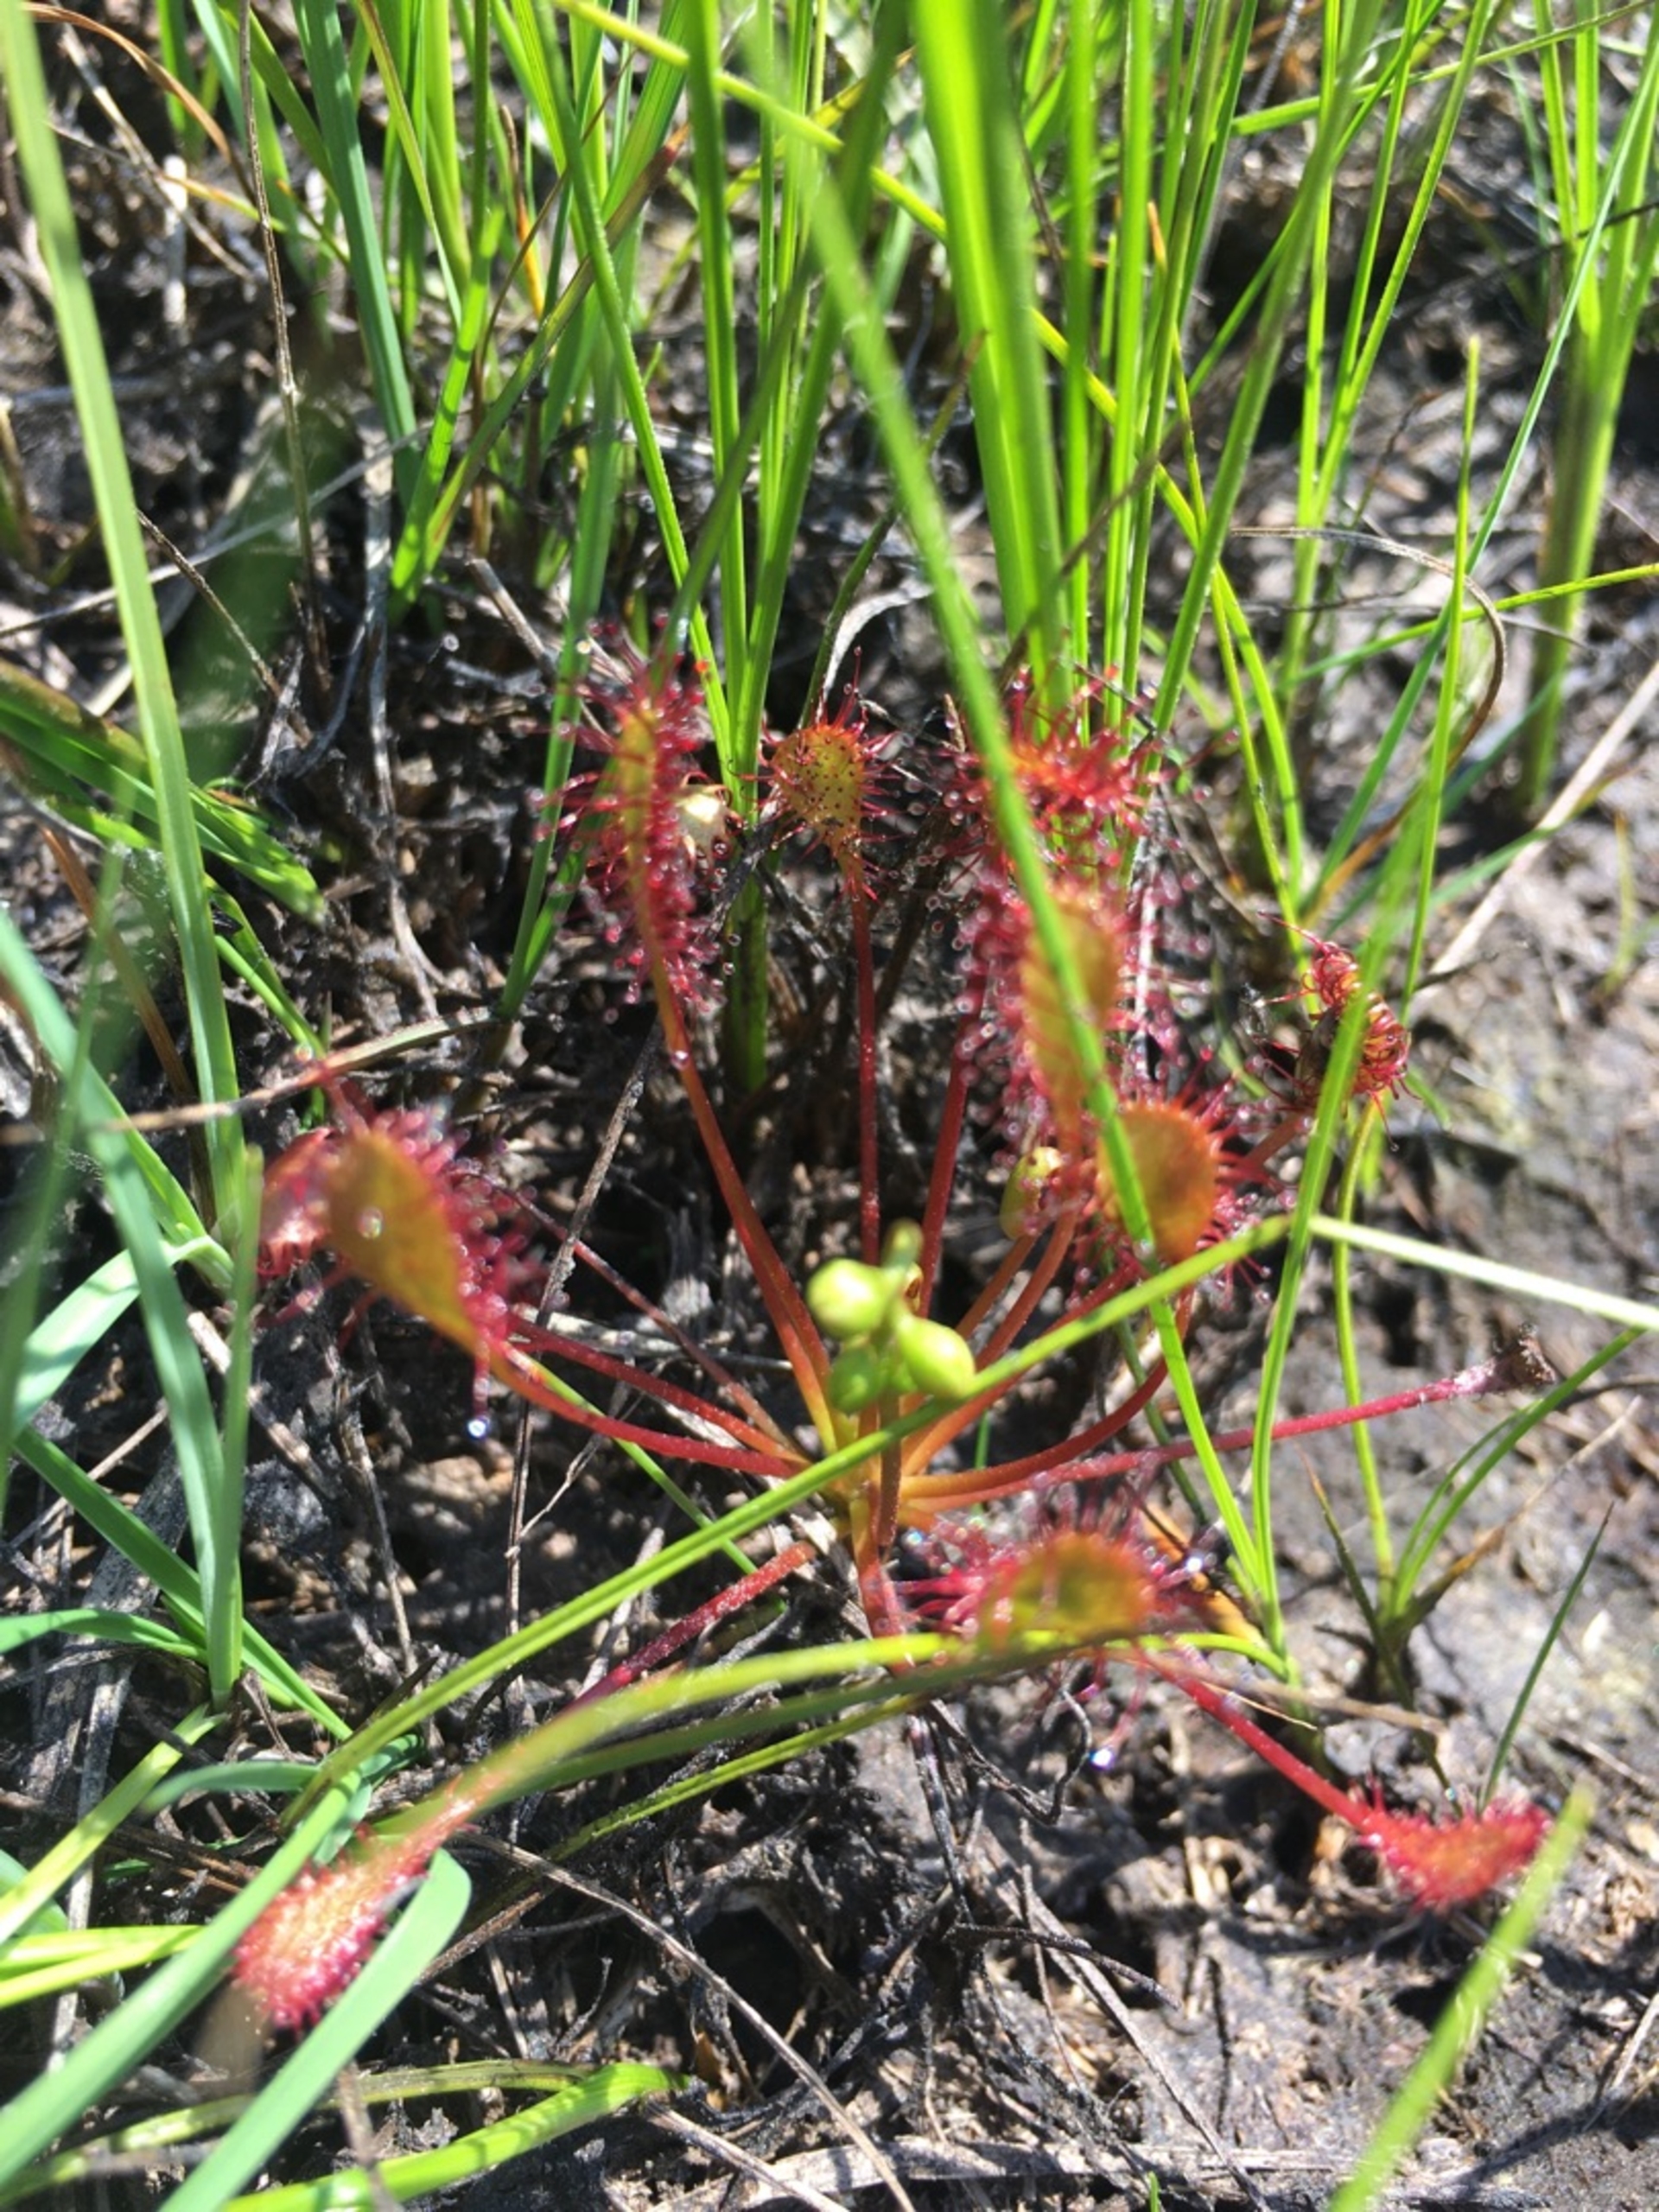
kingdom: Plantae
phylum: Tracheophyta
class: Magnoliopsida
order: Caryophyllales
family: Droseraceae
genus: Drosera
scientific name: Drosera intermedia
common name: Liden soldug
